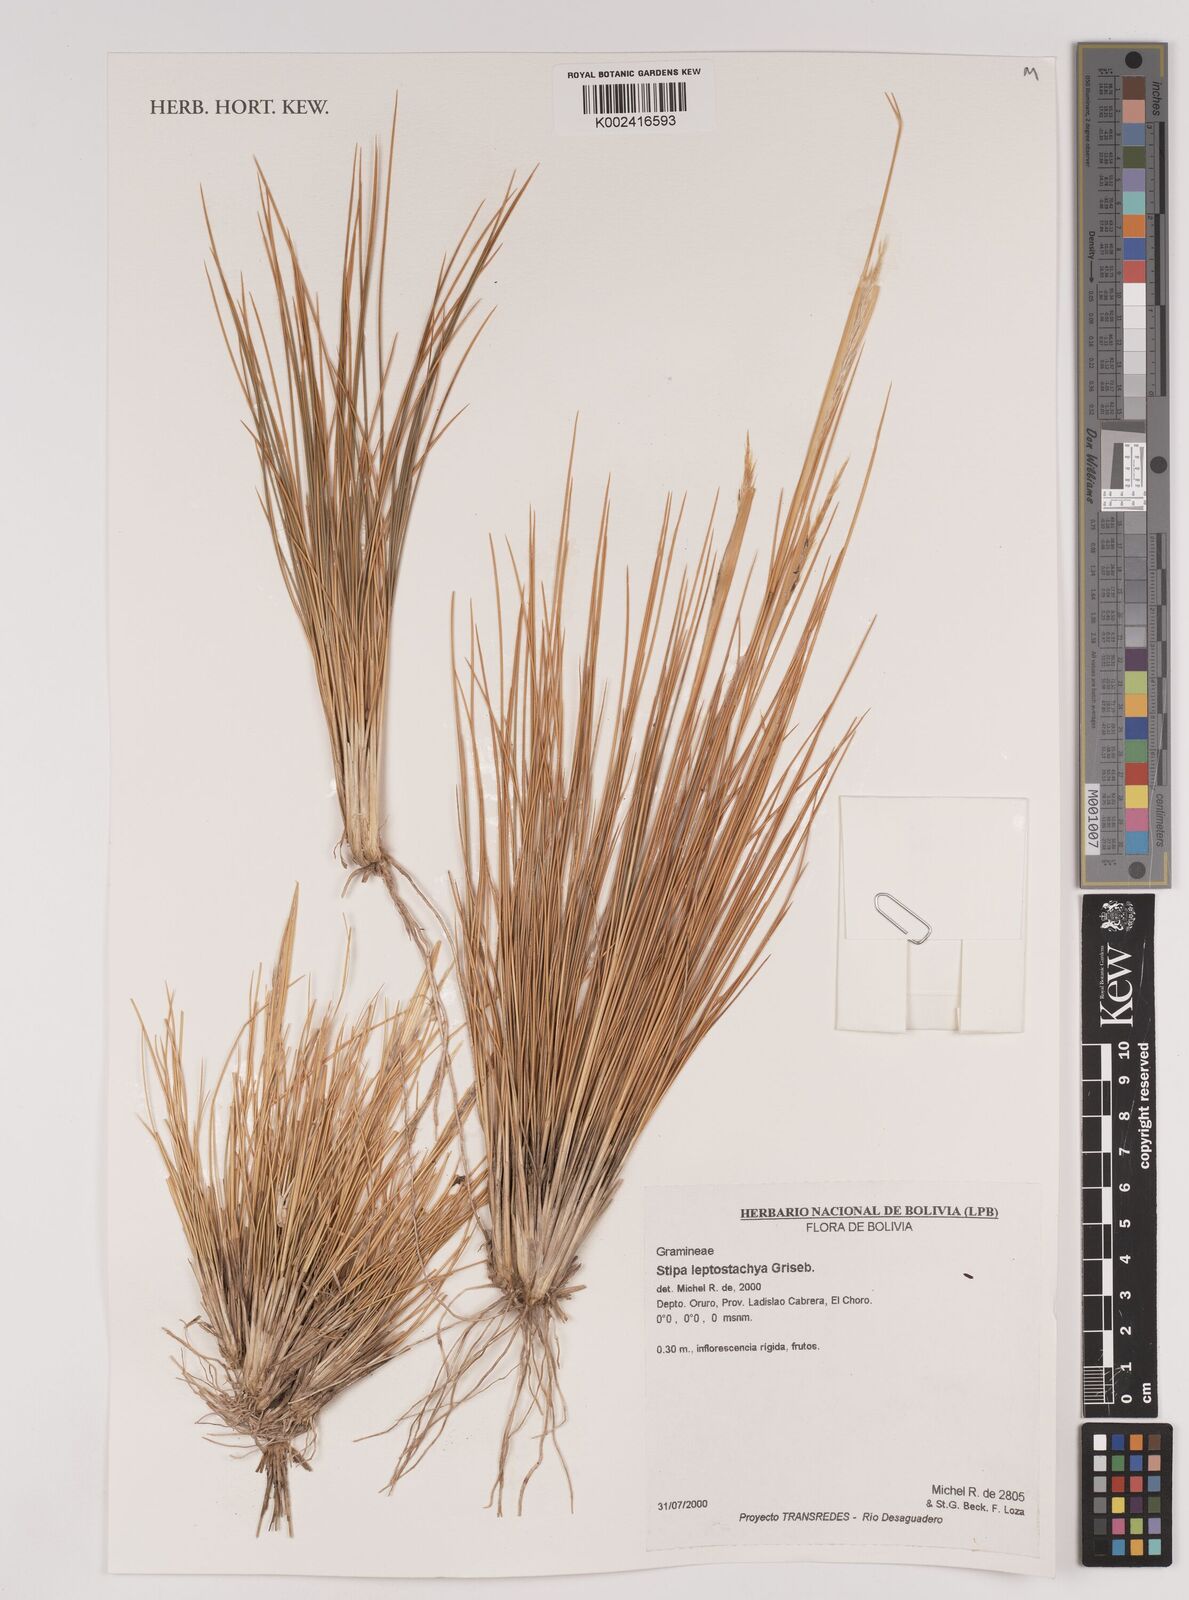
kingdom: Plantae
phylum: Tracheophyta
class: Liliopsida
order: Poales
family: Poaceae
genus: Jarava
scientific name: Jarava leptostachya
